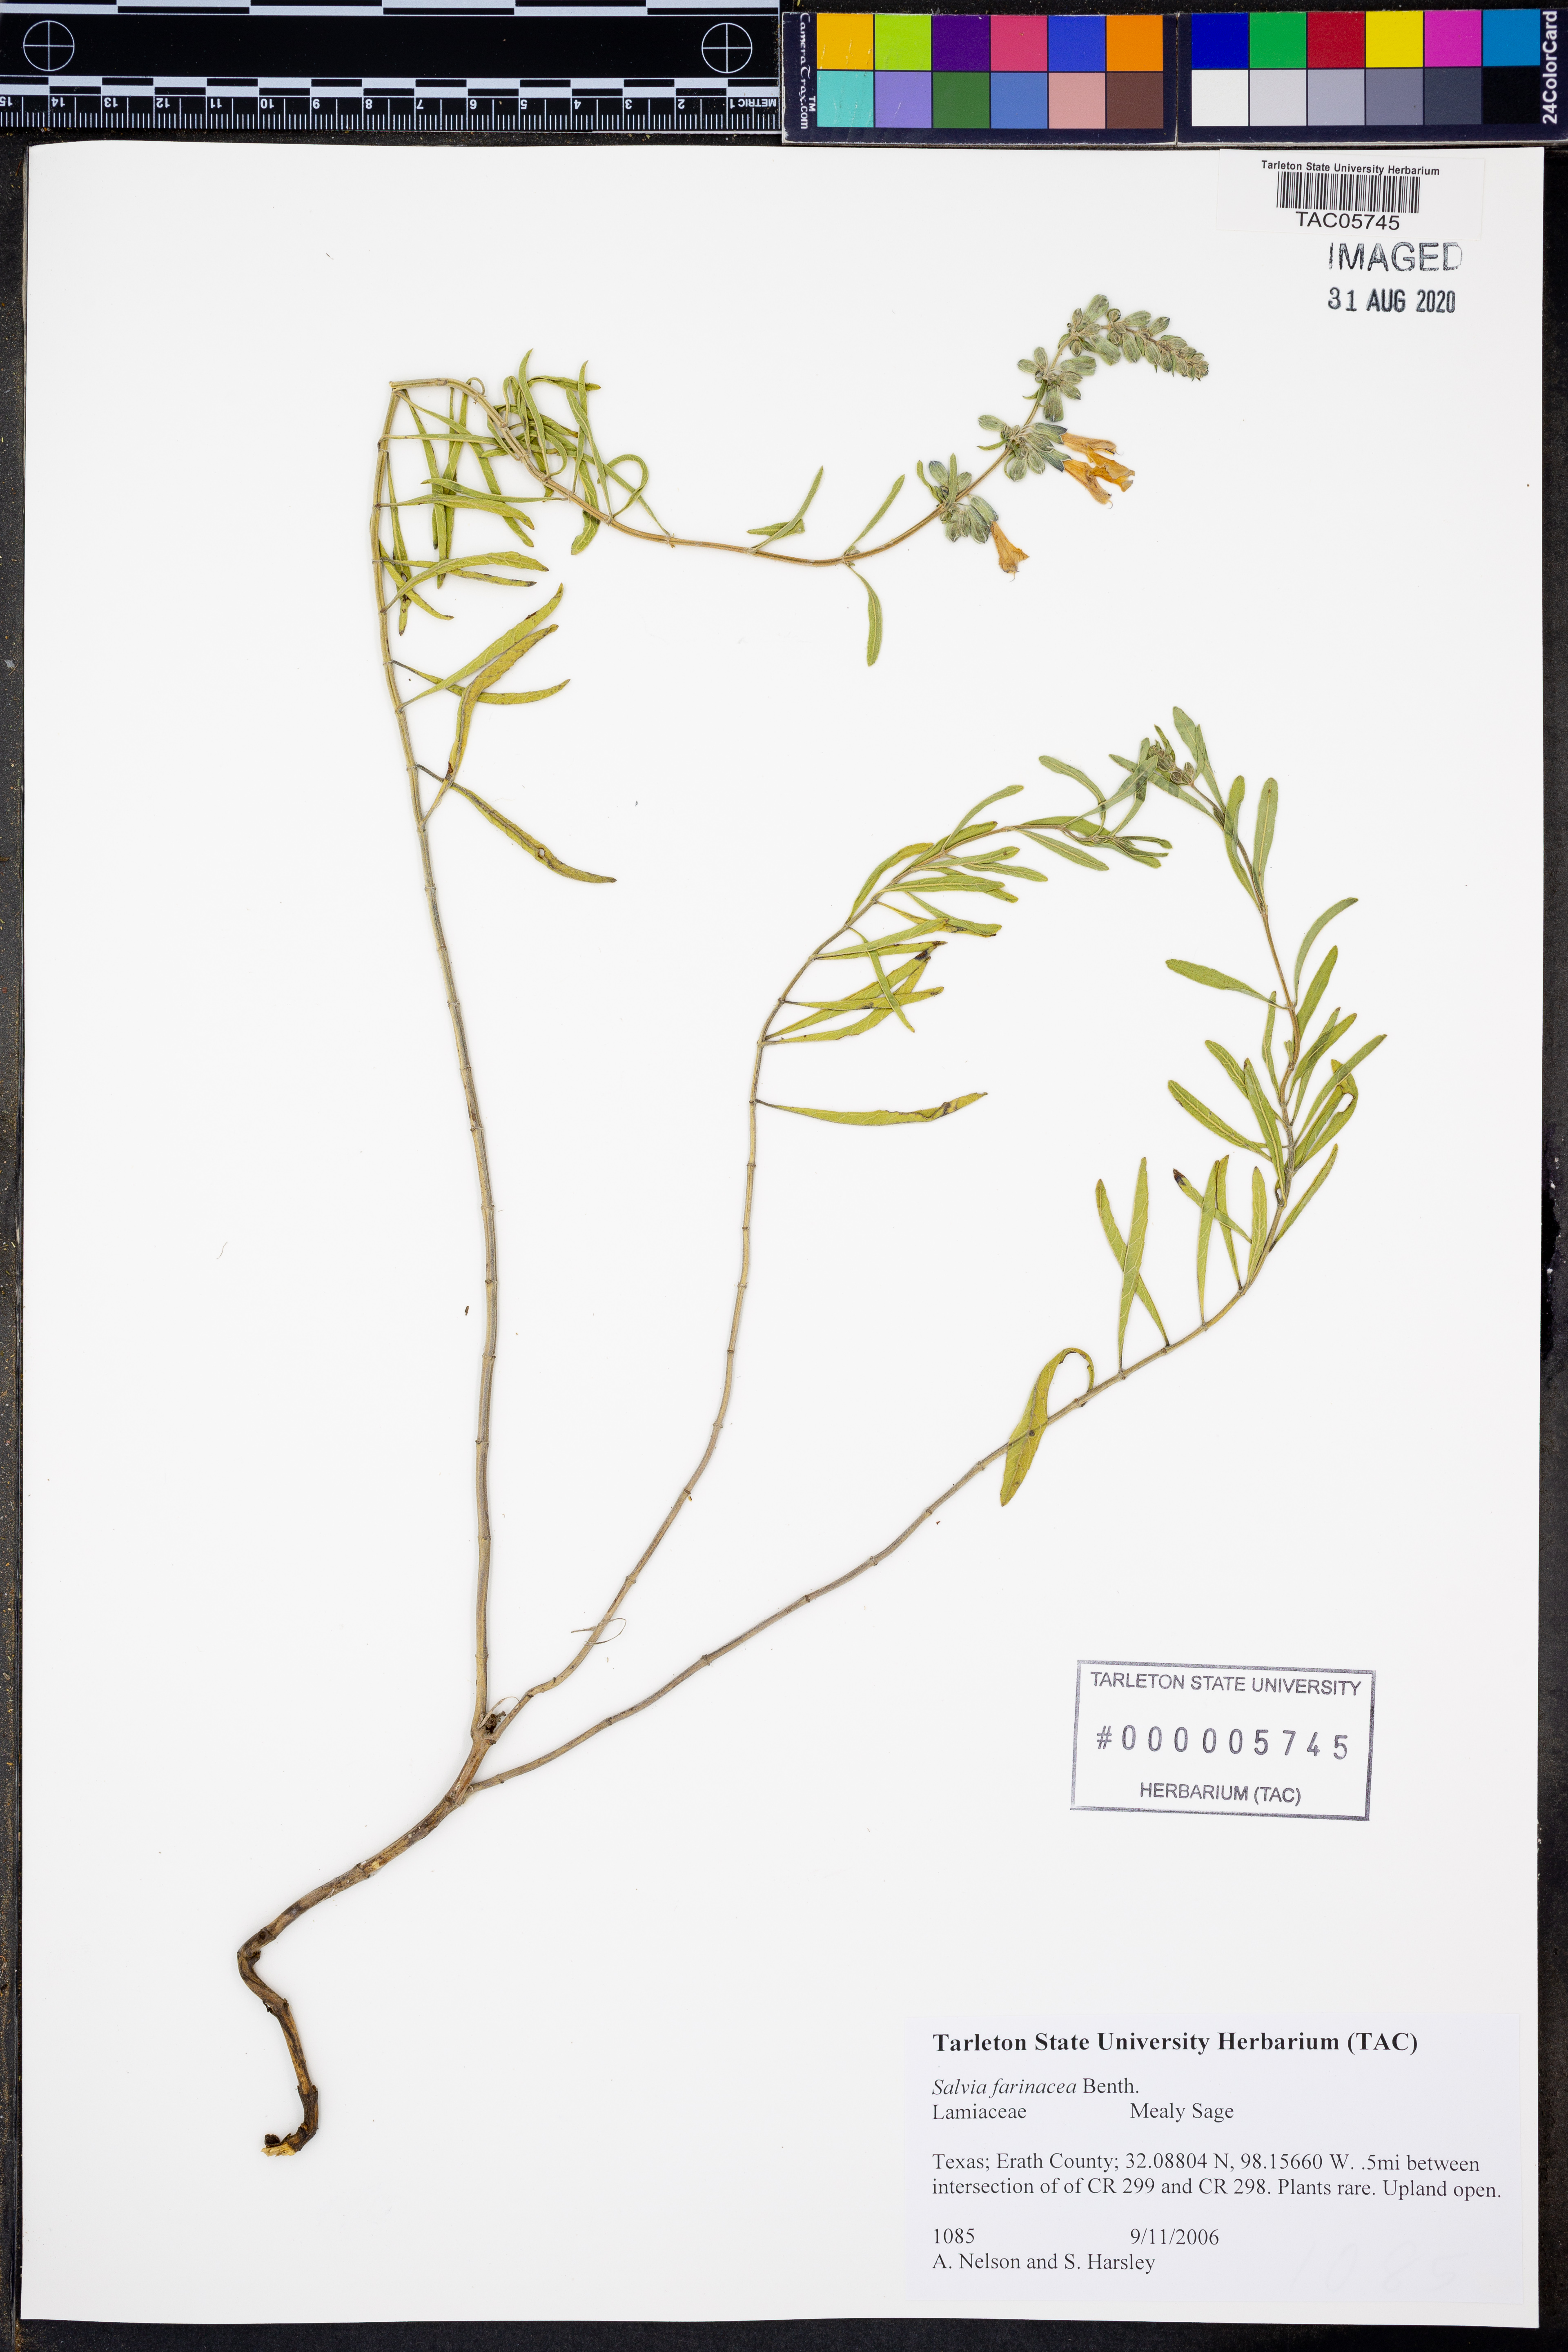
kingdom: Plantae
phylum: Tracheophyta
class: Magnoliopsida
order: Lamiales
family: Lamiaceae
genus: Salvia
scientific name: Salvia farinacea
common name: Mealy sage
